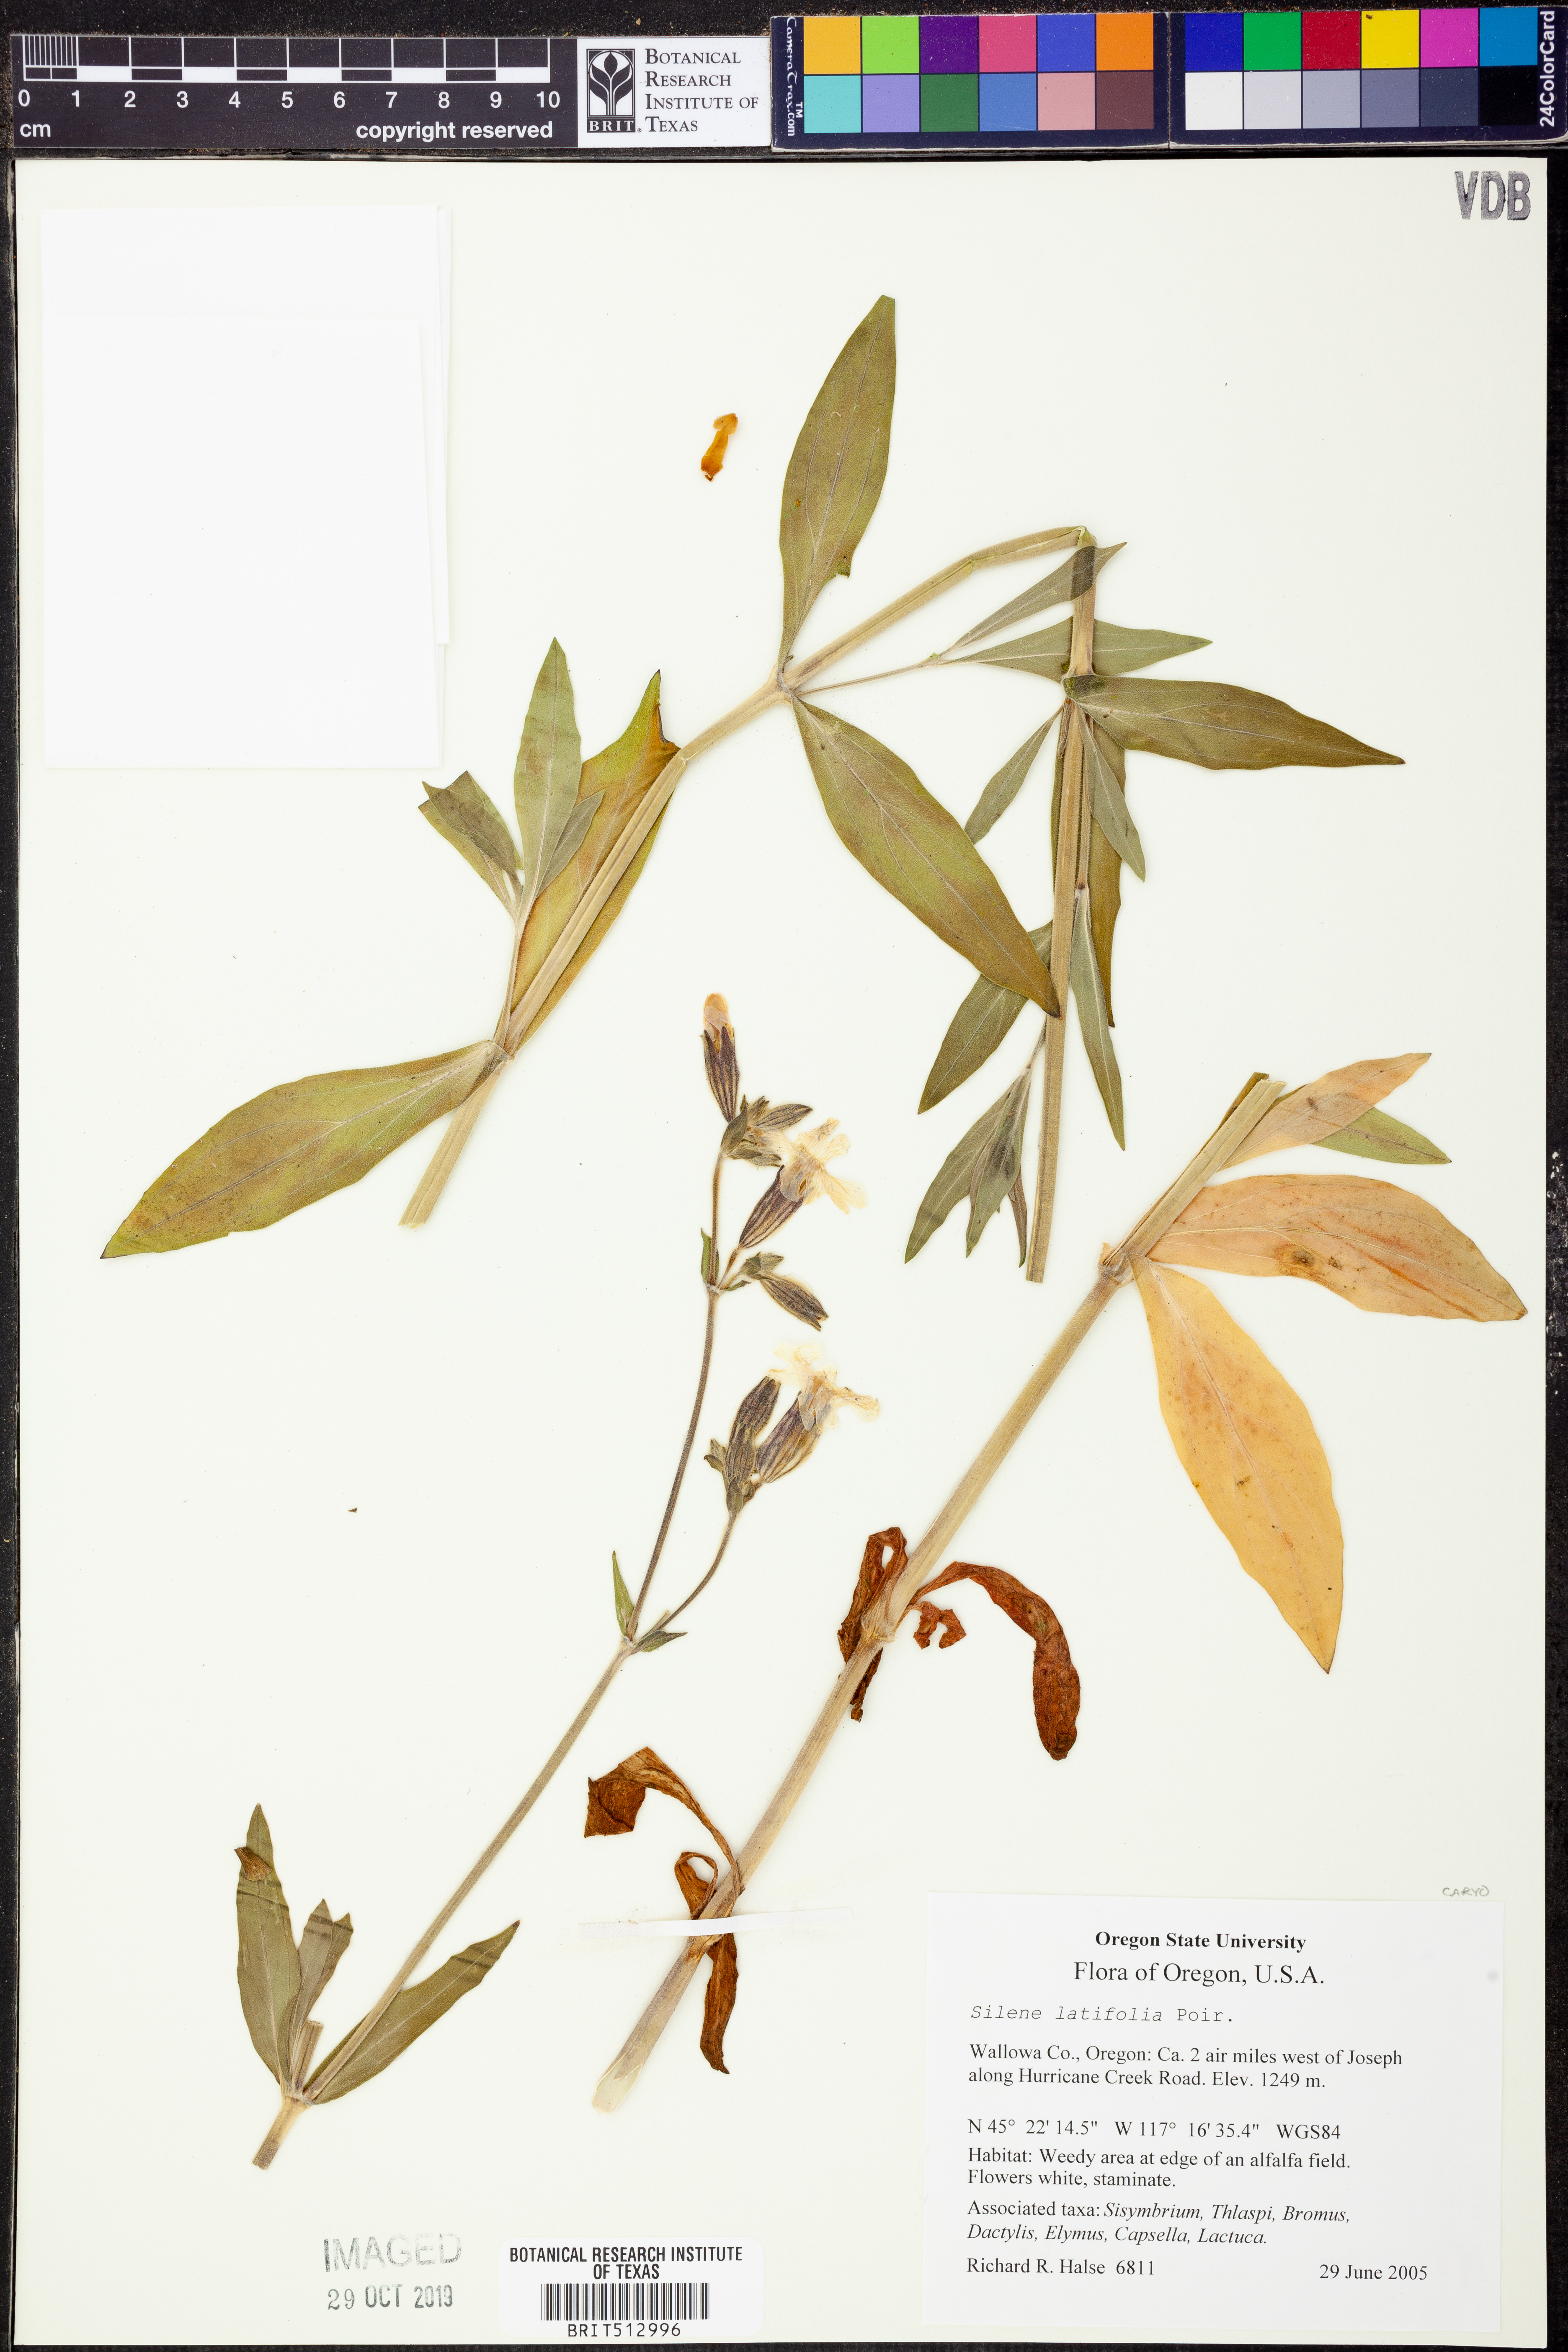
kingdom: Plantae
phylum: Tracheophyta
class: Magnoliopsida
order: Caryophyllales
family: Caryophyllaceae
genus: Silene
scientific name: Silene latifolia
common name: White campion
